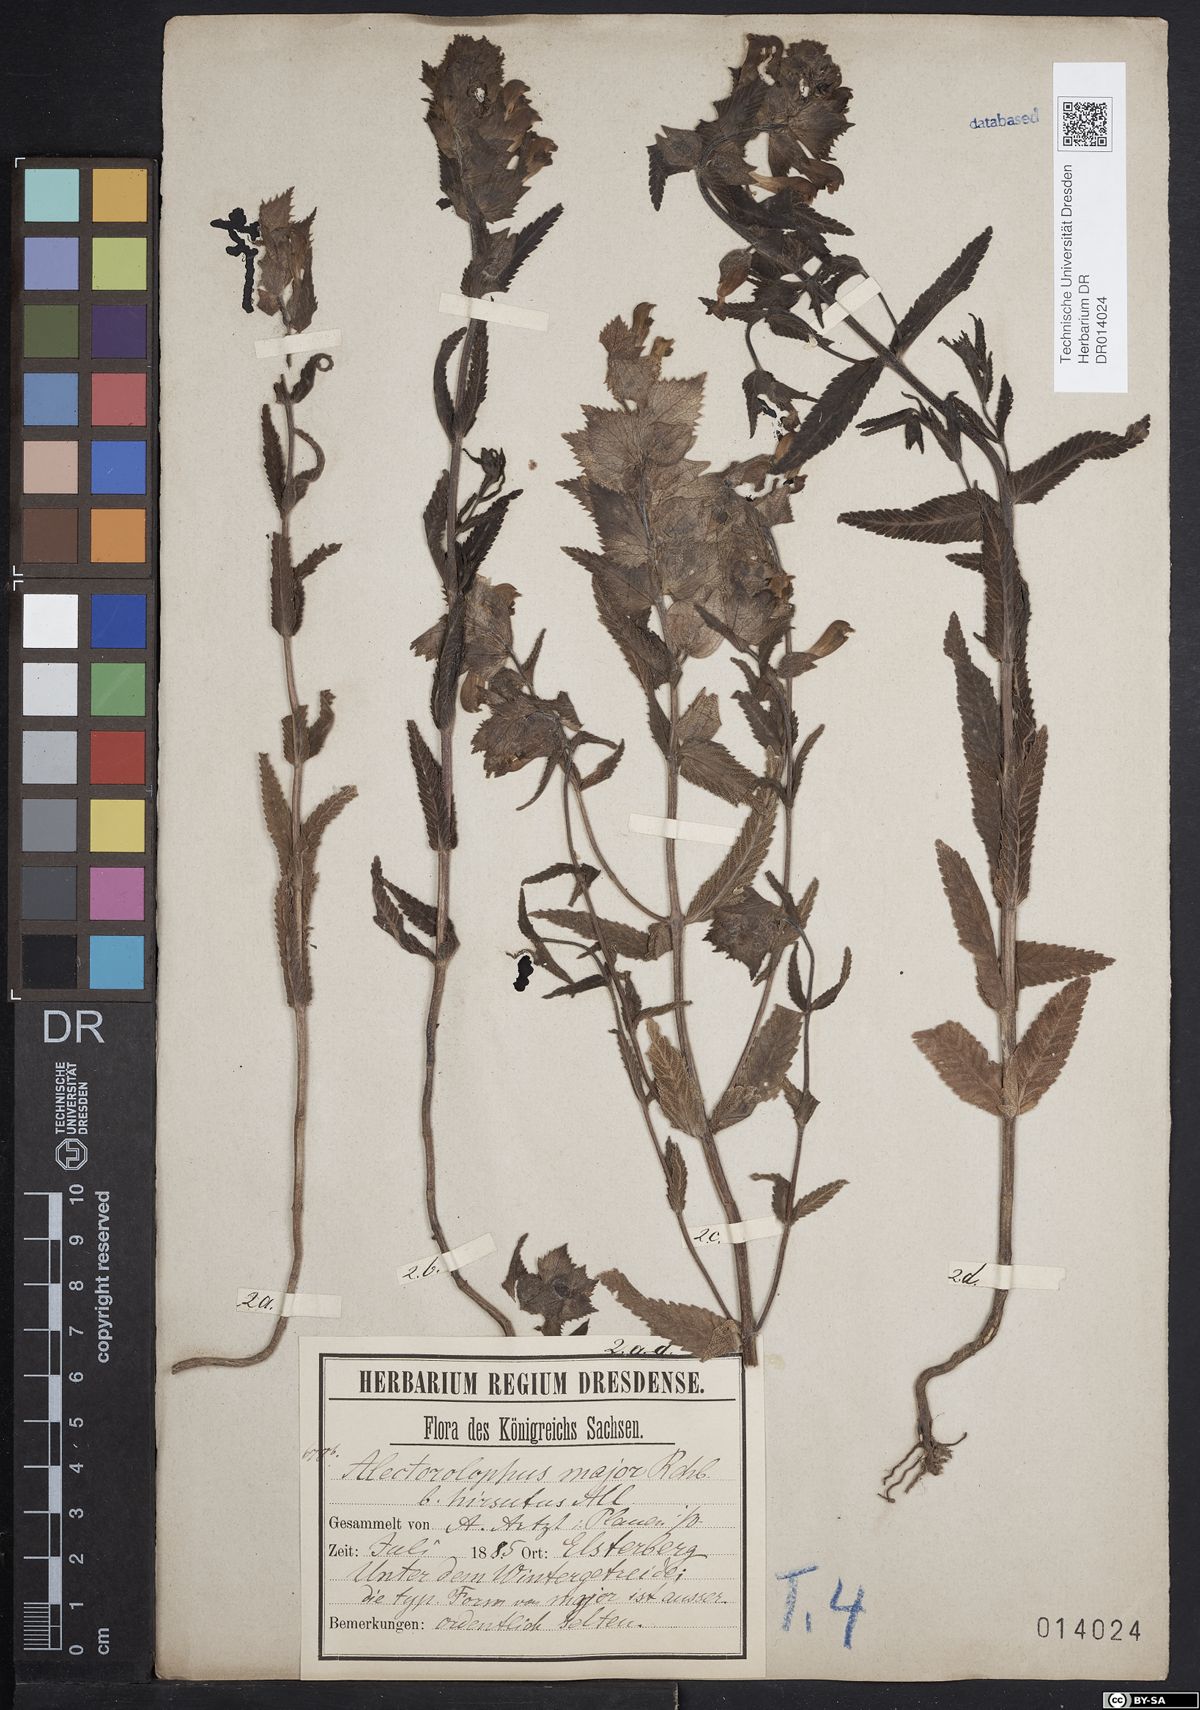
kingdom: Plantae
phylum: Tracheophyta
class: Magnoliopsida
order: Lamiales
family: Orobanchaceae
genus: Rhinanthus
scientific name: Rhinanthus alectorolophus
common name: Greater yellow-rattle
